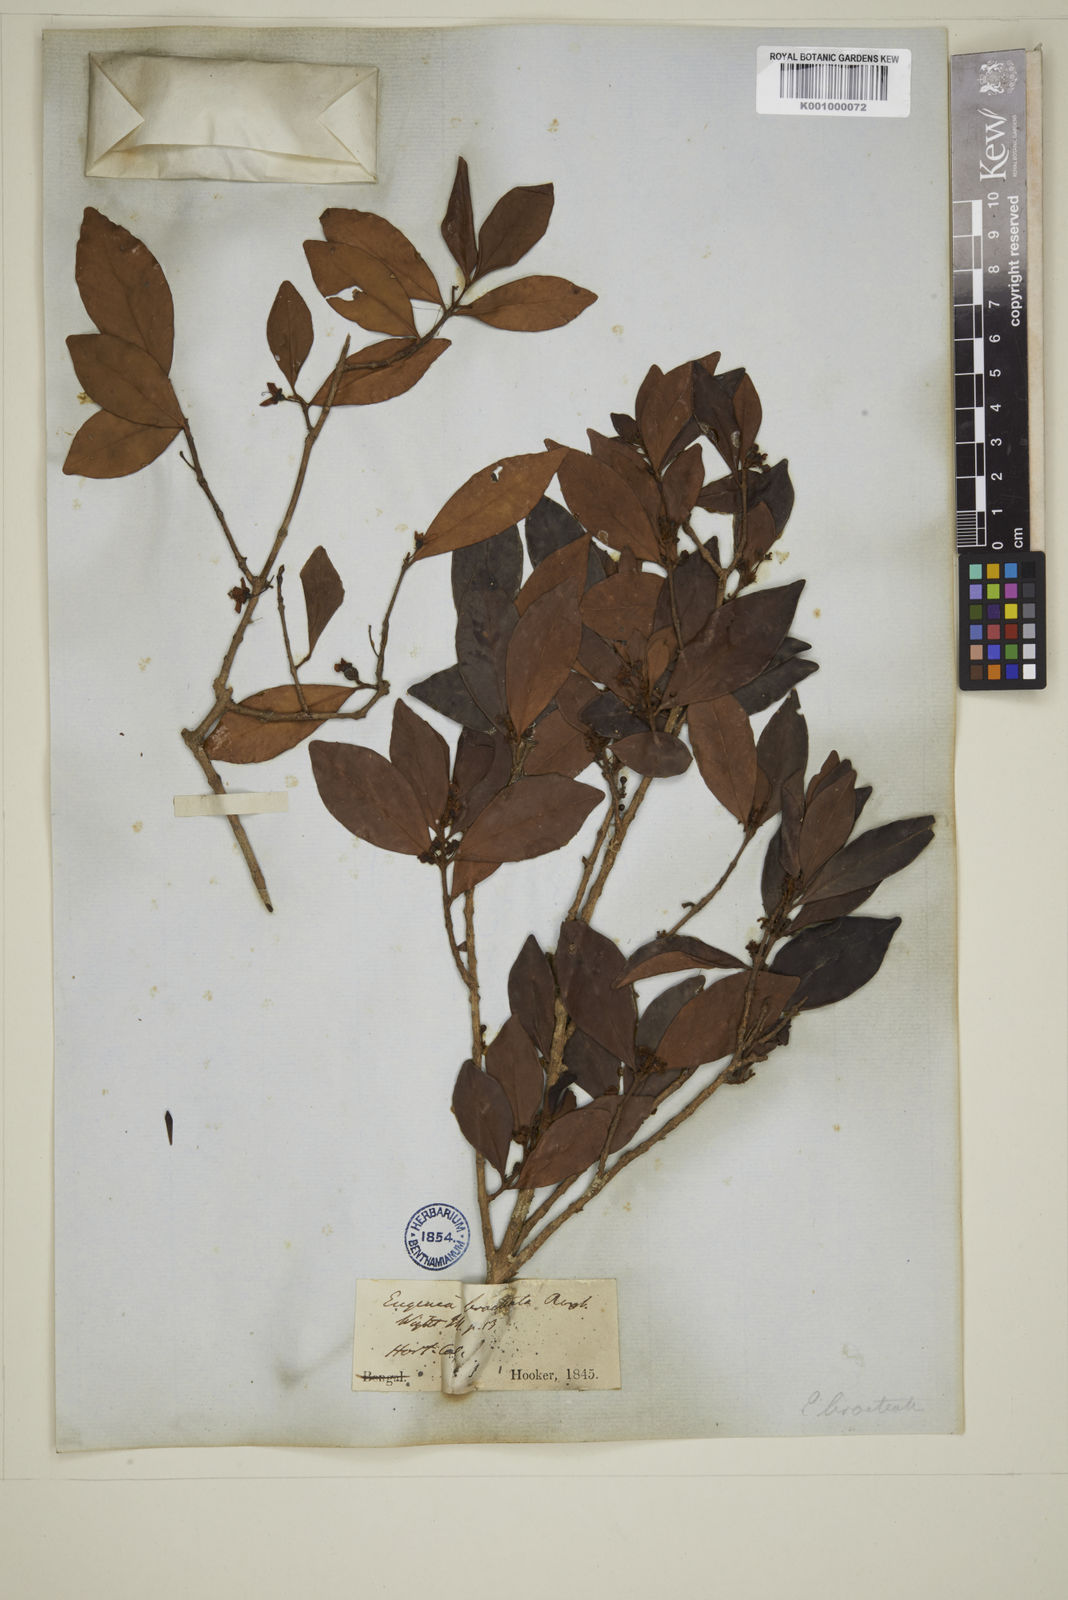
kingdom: Plantae
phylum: Tracheophyta
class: Magnoliopsida
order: Myrtales
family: Myrtaceae
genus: Myrcia
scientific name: Myrcia bracteata
